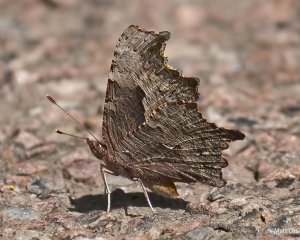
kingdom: Animalia
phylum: Arthropoda
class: Insecta
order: Lepidoptera
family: Nymphalidae
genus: Polygonia
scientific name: Polygonia progne
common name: Gray Comma
